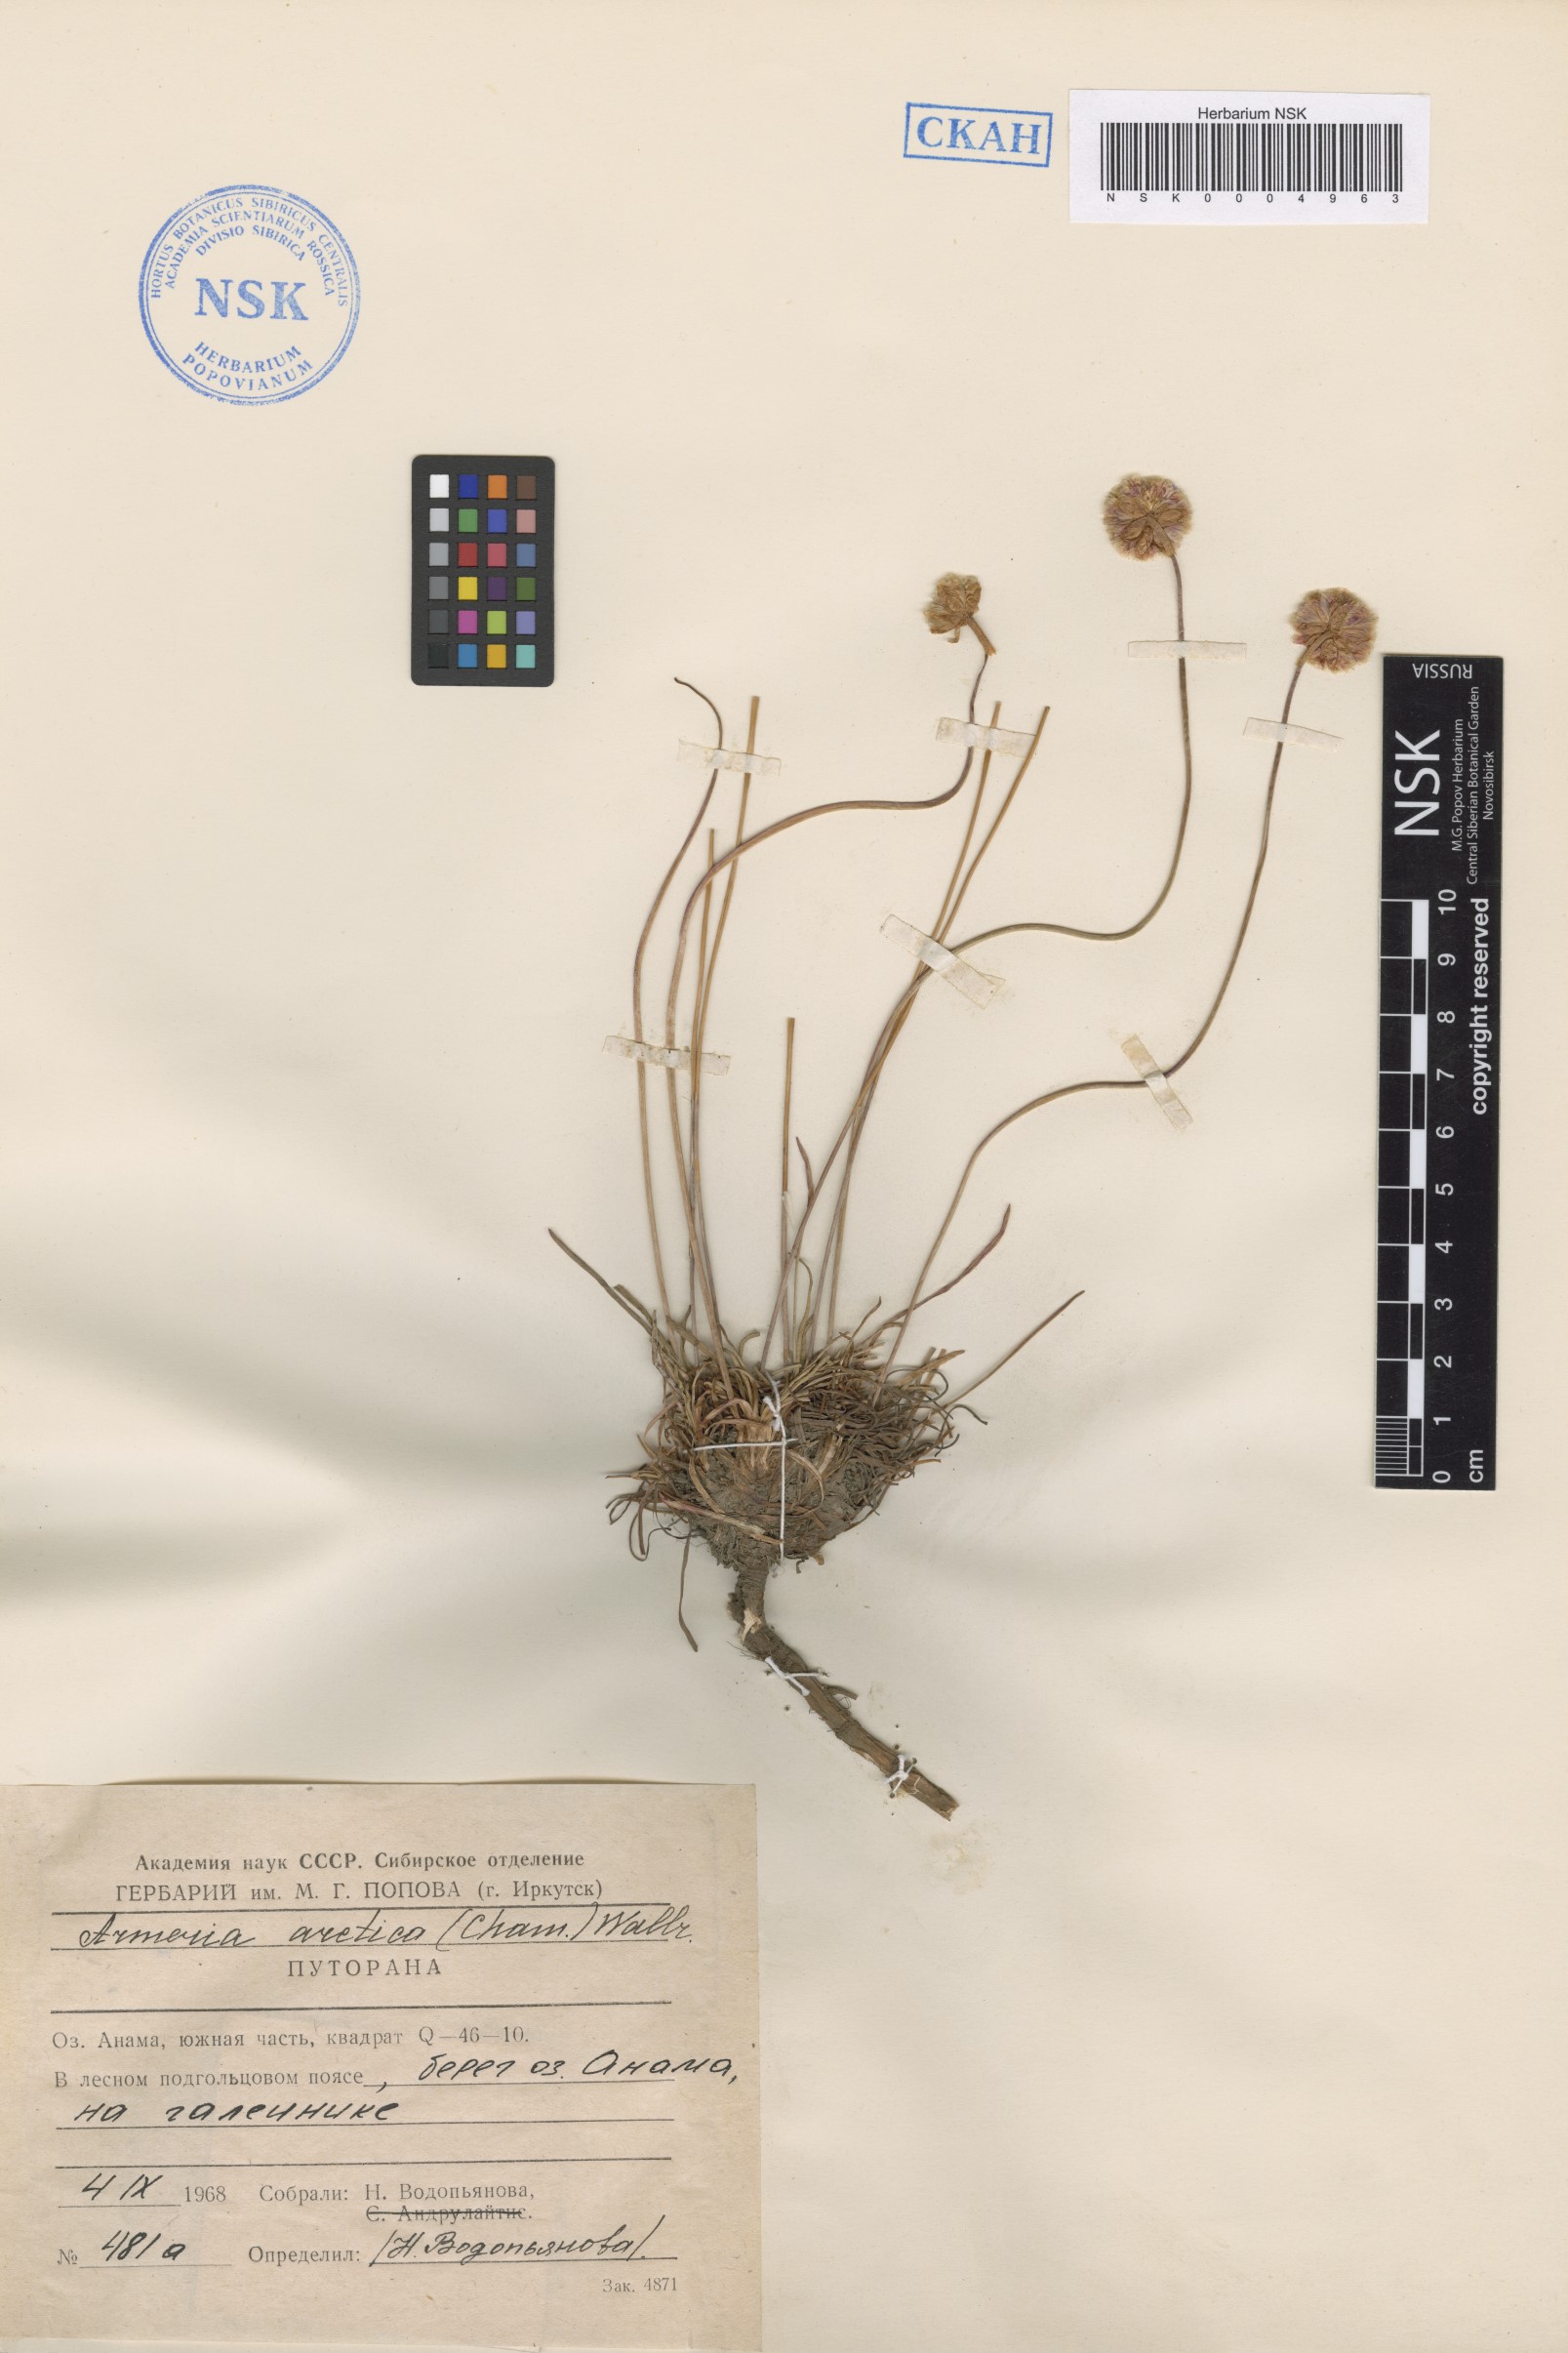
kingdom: Plantae
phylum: Tracheophyta
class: Magnoliopsida
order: Caryophyllales
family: Plumbaginaceae
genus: Armeria
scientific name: Armeria maritima
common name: Thrift
